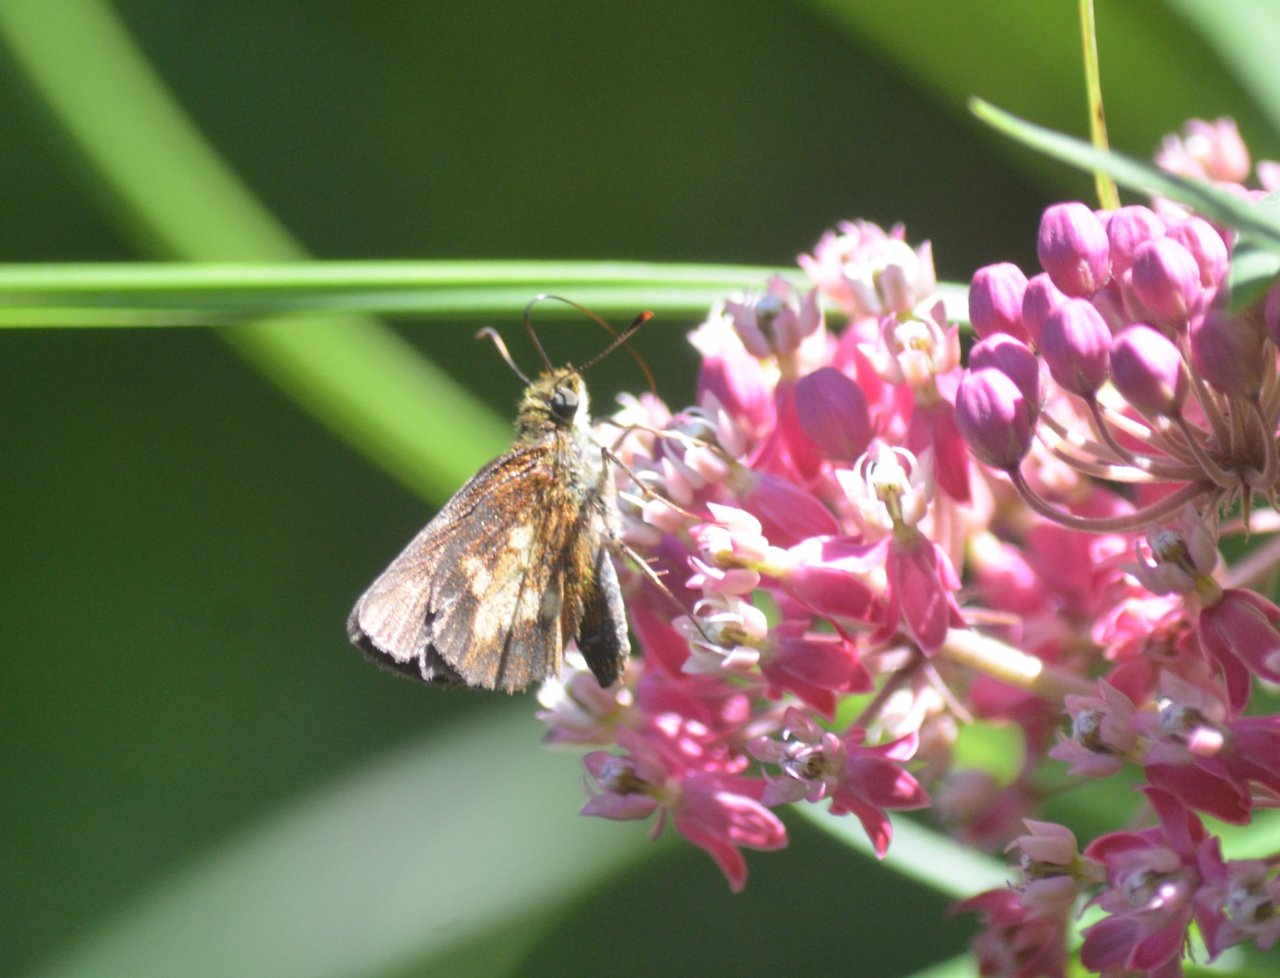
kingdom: Animalia
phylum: Arthropoda
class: Insecta
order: Lepidoptera
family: Hesperiidae
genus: Poanes
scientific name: Poanes massasoit
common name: Mulberry Wing
